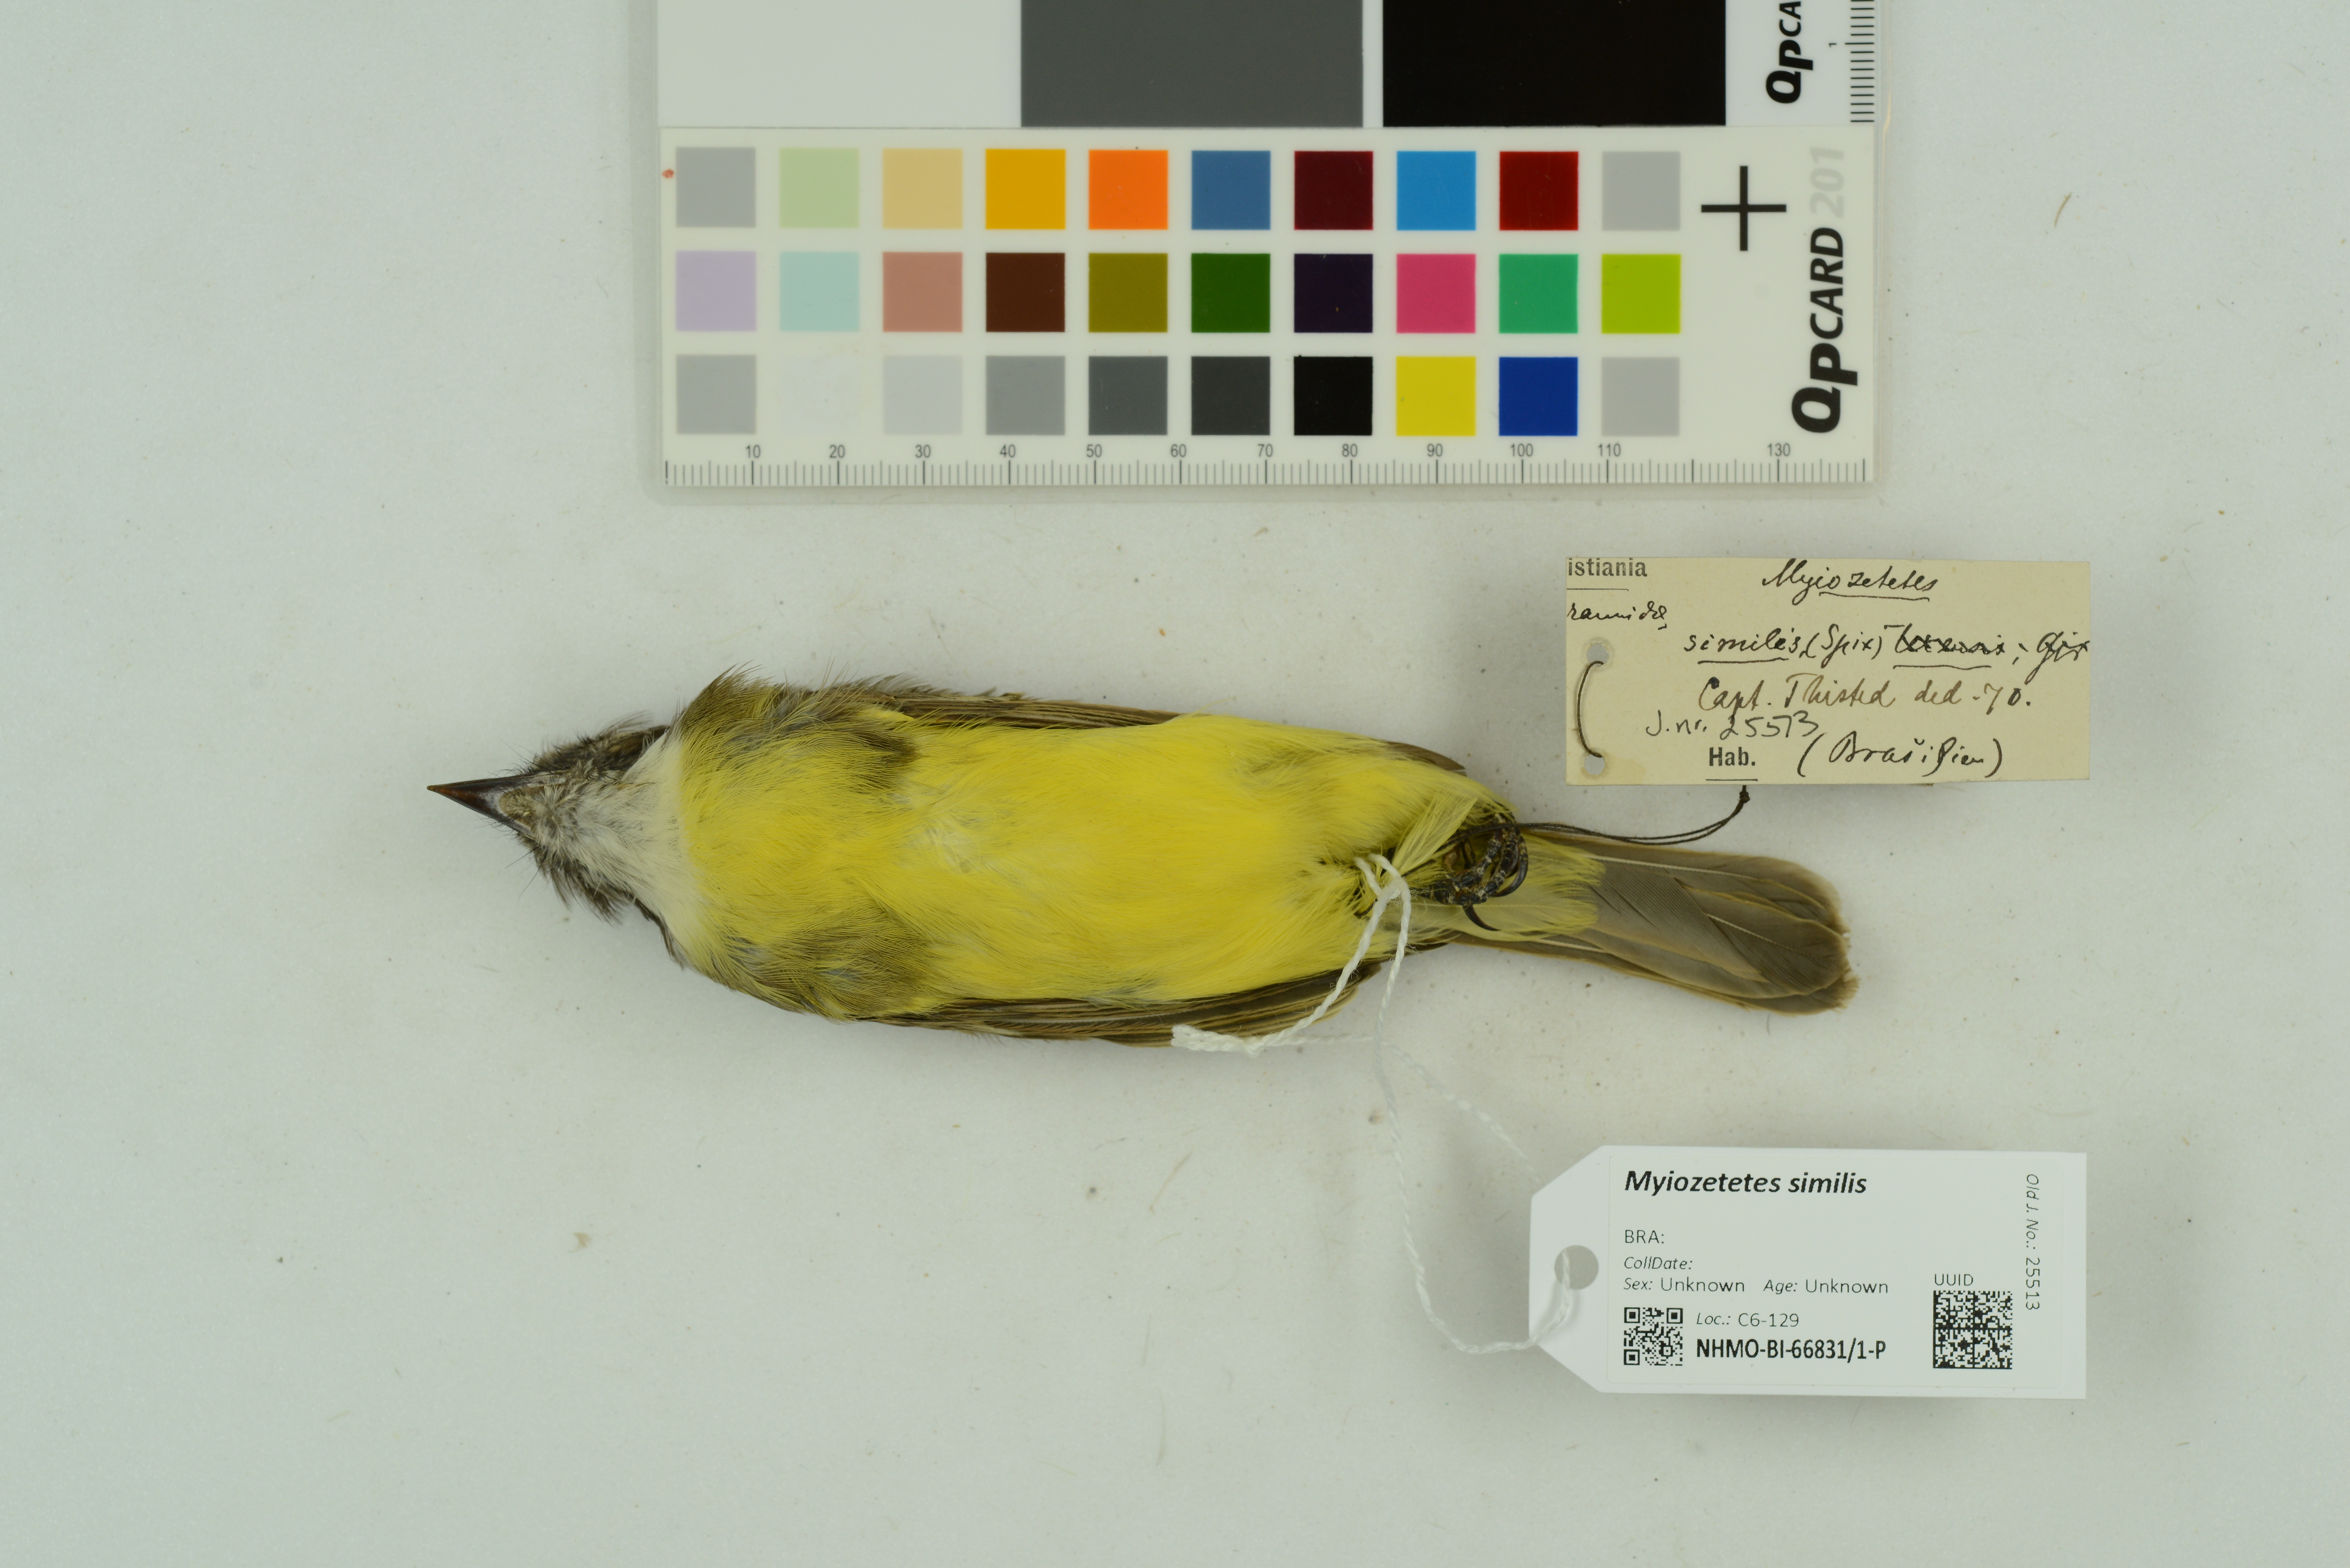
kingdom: Animalia
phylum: Chordata
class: Aves
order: Passeriformes
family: Tyrannidae
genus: Myiozetetes
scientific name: Myiozetetes similis
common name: Social flycatcher
